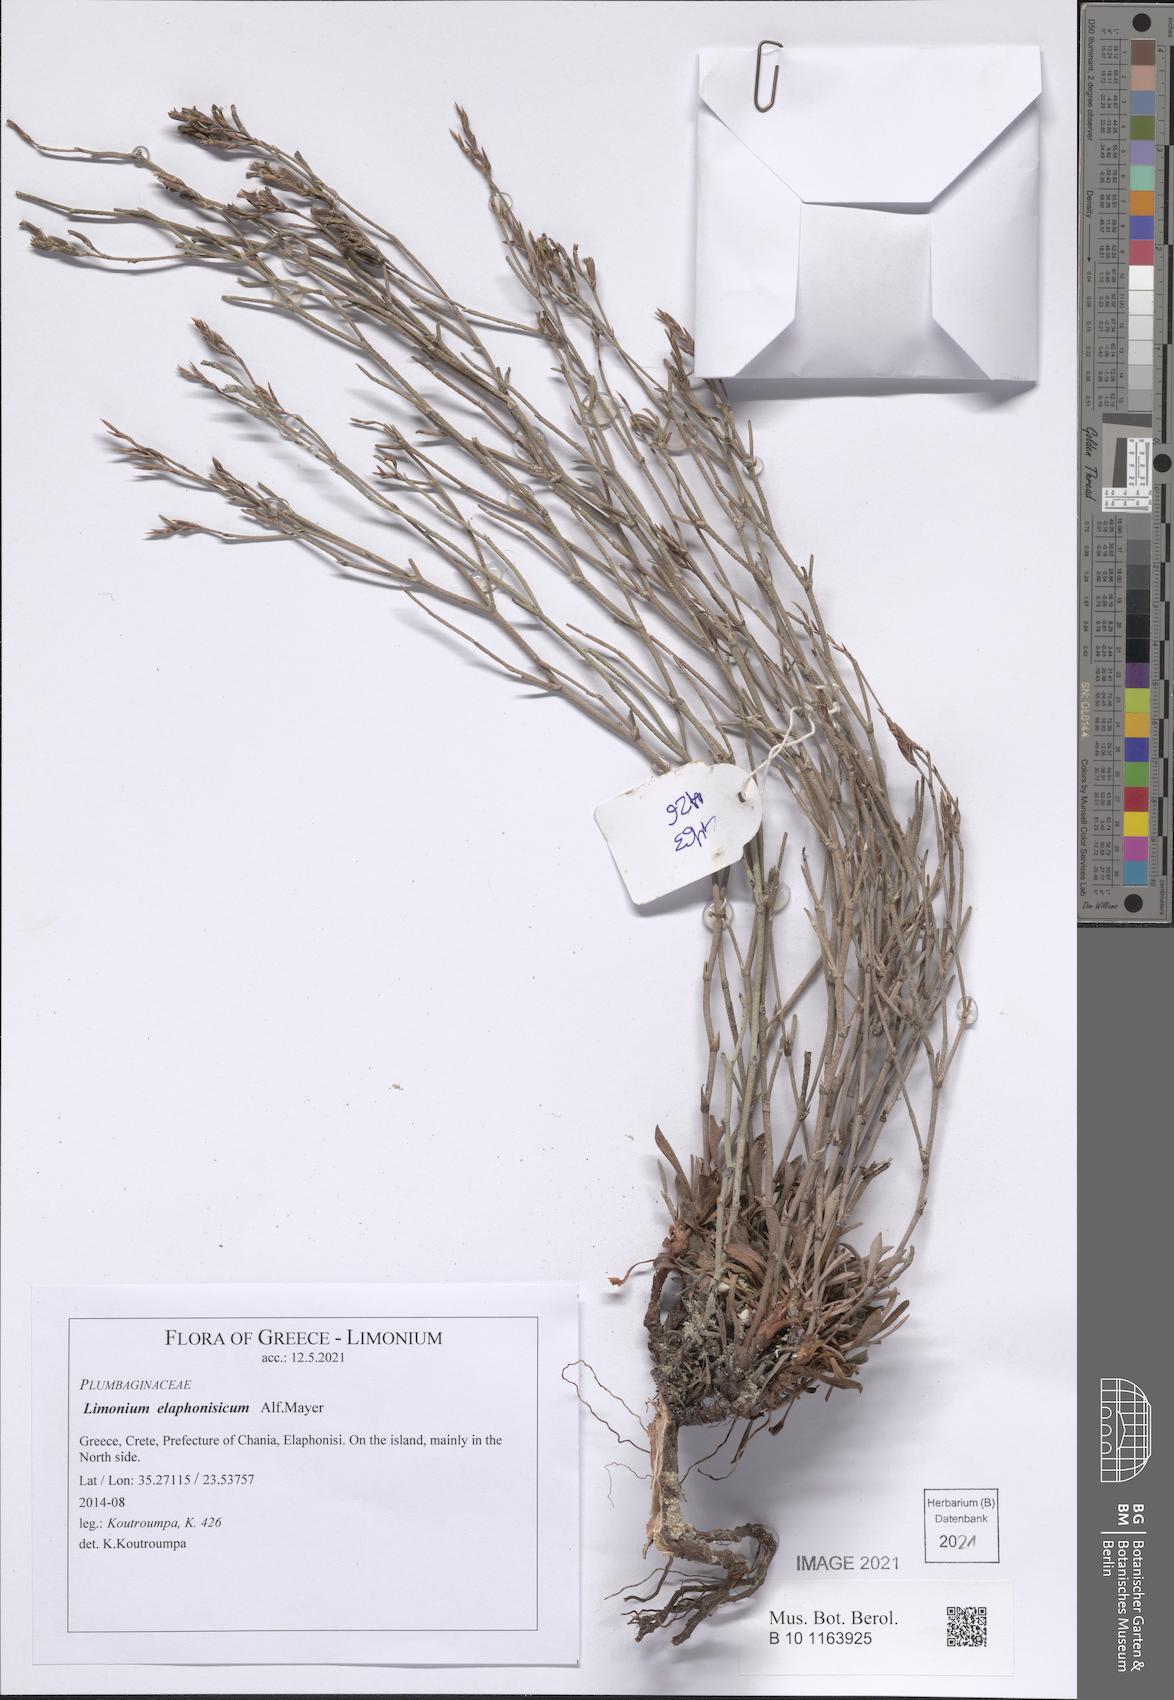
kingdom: Plantae
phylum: Tracheophyta
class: Magnoliopsida
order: Caryophyllales
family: Plumbaginaceae
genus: Limonium
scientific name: Limonium elaphonisicum
